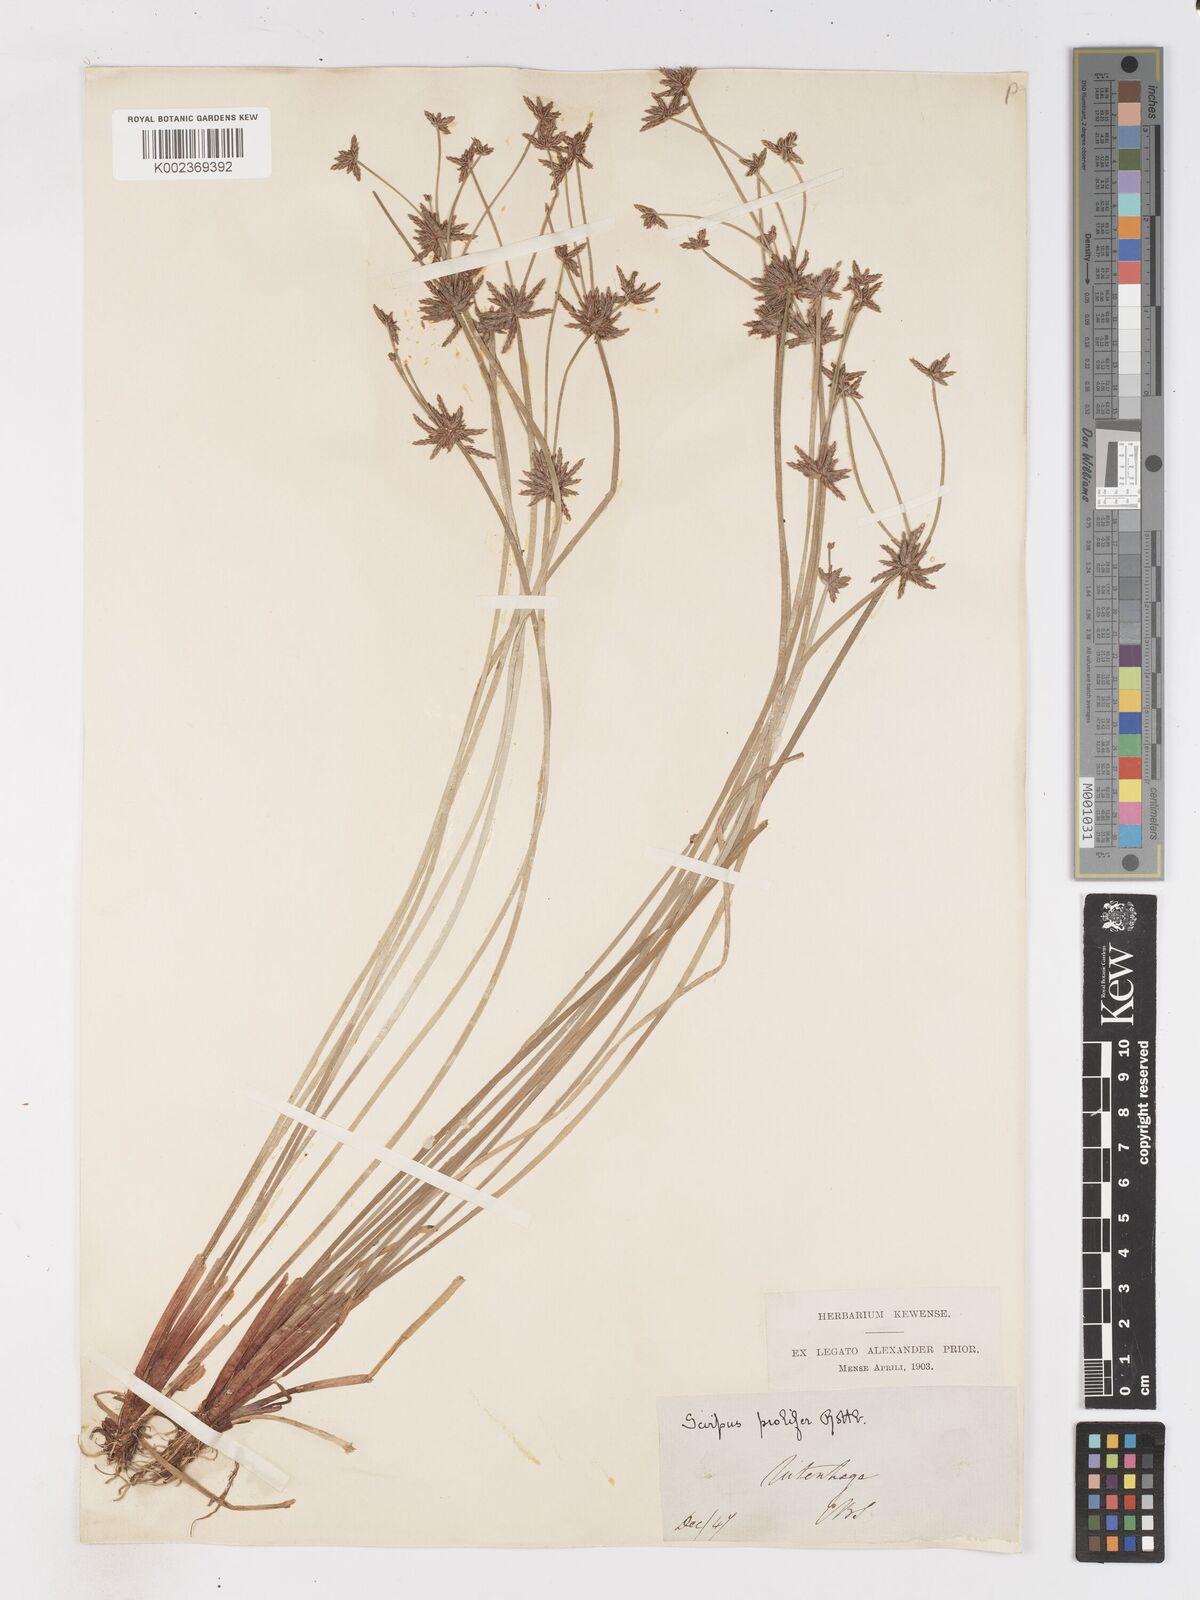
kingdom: Plantae
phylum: Tracheophyta
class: Liliopsida
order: Poales
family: Cyperaceae
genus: Isolepis
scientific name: Isolepis prolifera
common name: Proliferating bulrush
